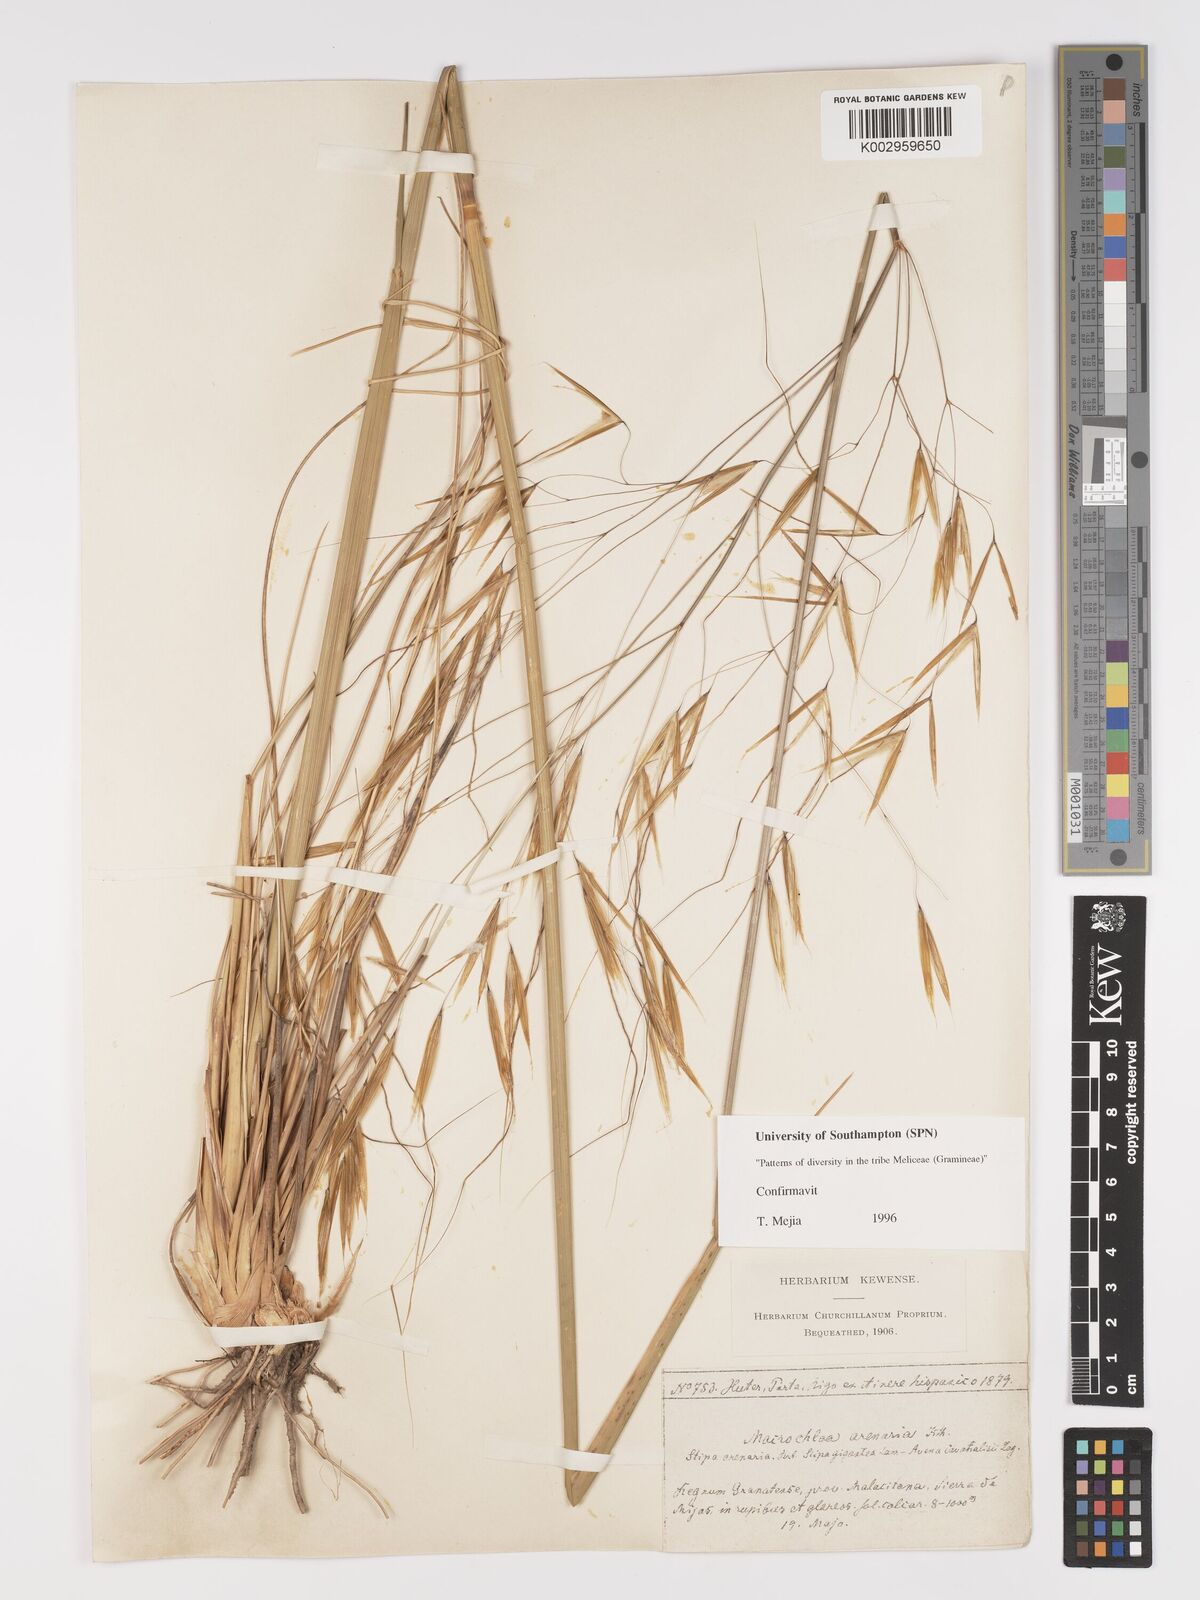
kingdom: Plantae
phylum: Tracheophyta
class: Liliopsida
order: Poales
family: Poaceae
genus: Celtica
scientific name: Celtica gigantea
